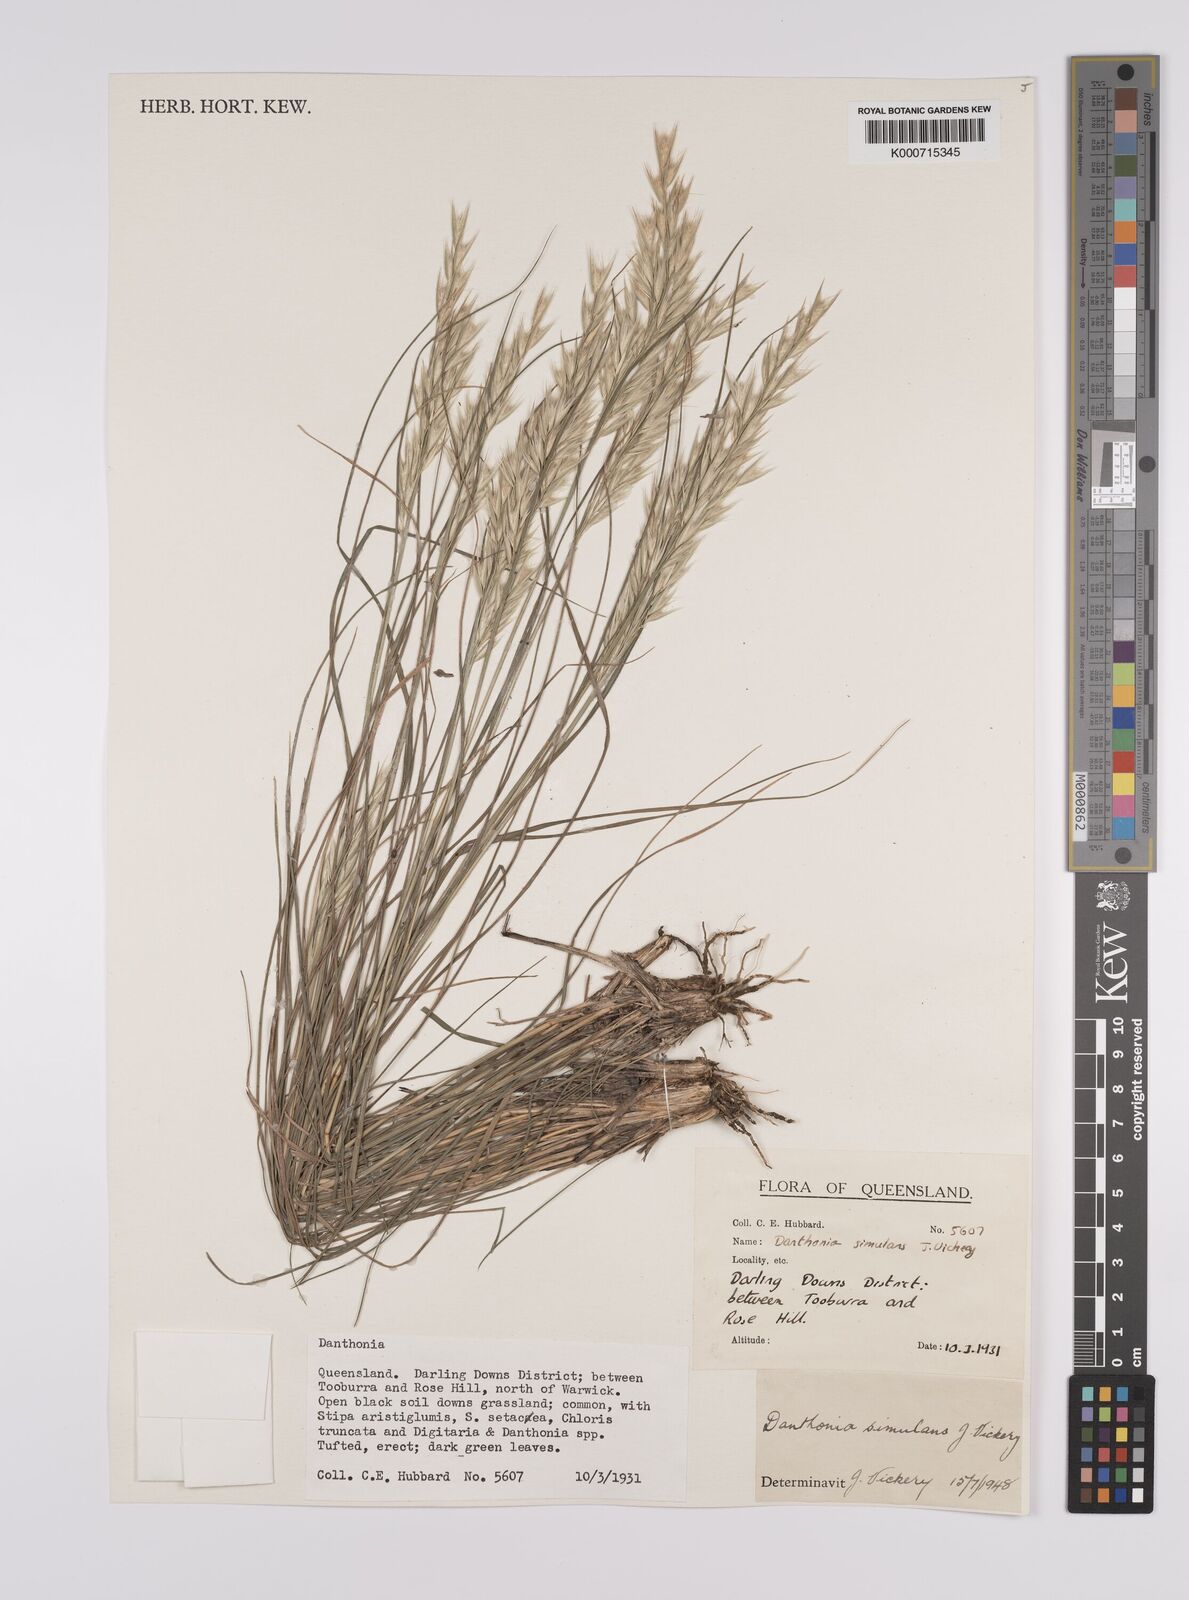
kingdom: Plantae
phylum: Tracheophyta
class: Liliopsida
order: Poales
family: Poaceae
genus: Rytidosperma
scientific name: Rytidosperma bipartitum
